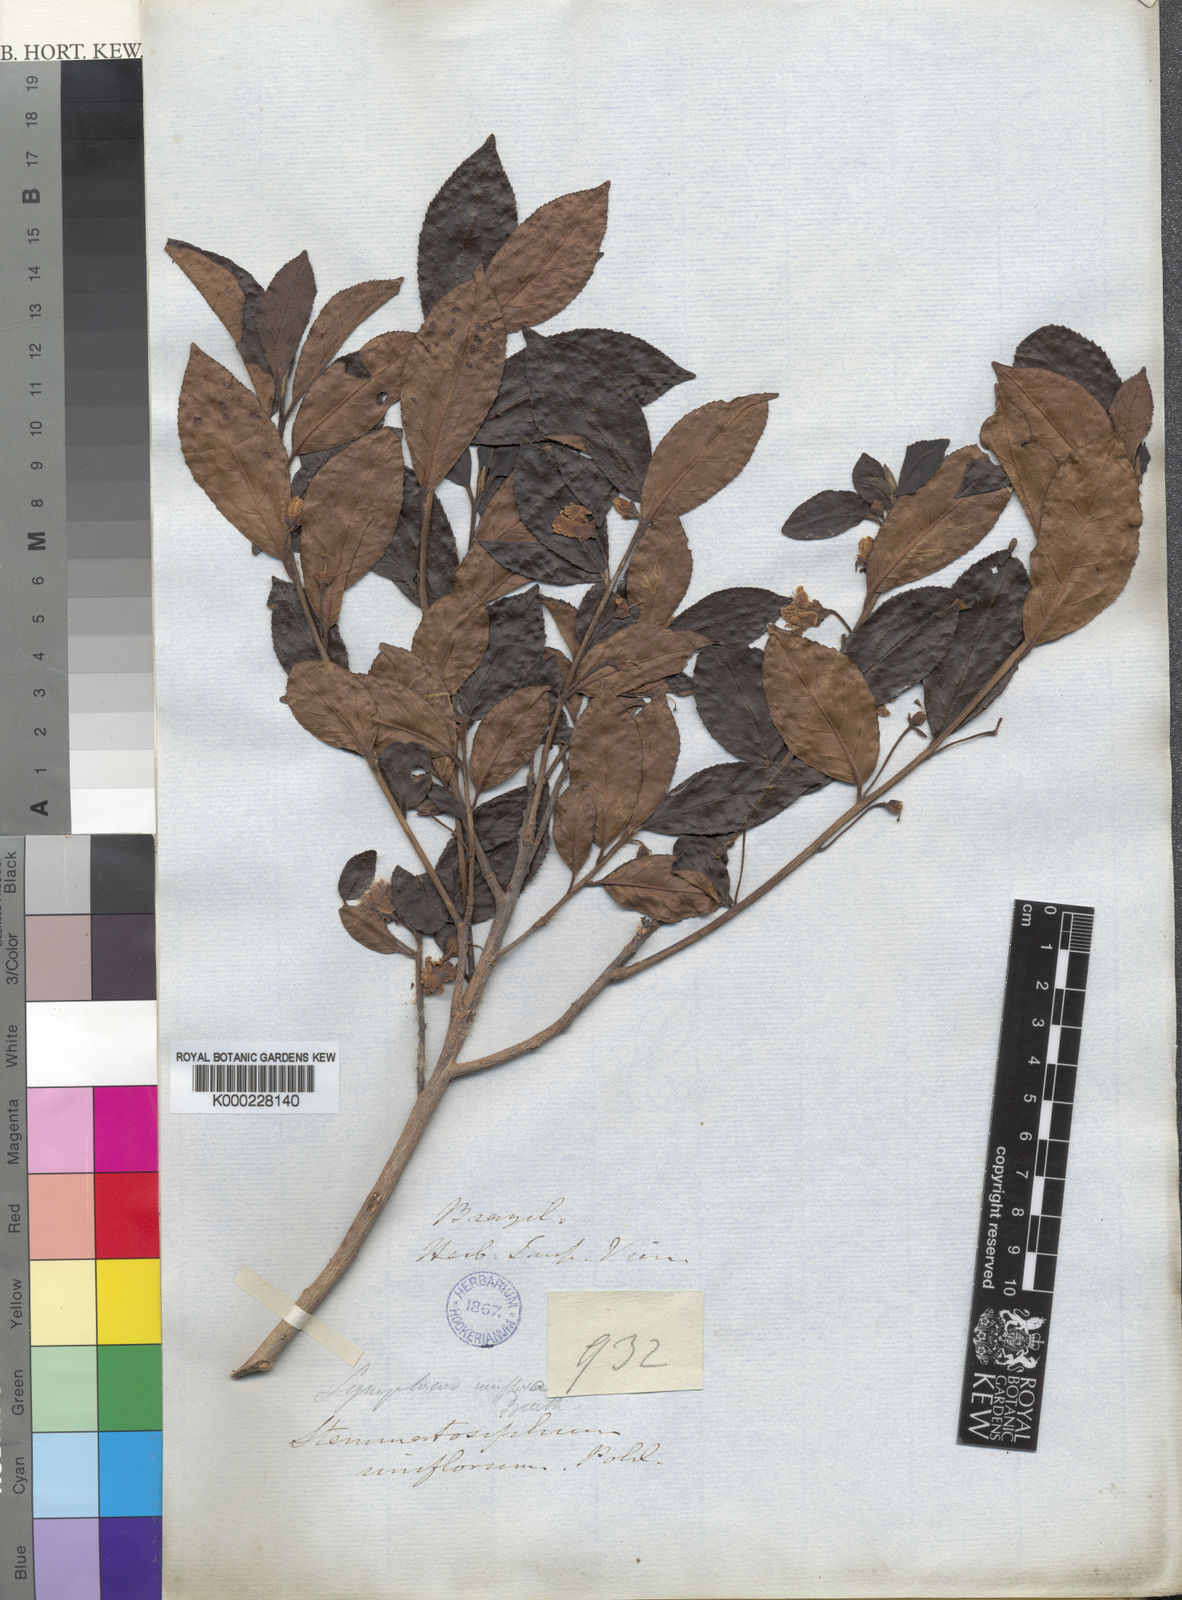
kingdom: Plantae
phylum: Tracheophyta
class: Magnoliopsida
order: Ericales
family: Symplocaceae
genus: Symplocos
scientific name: Symplocos uniflora
